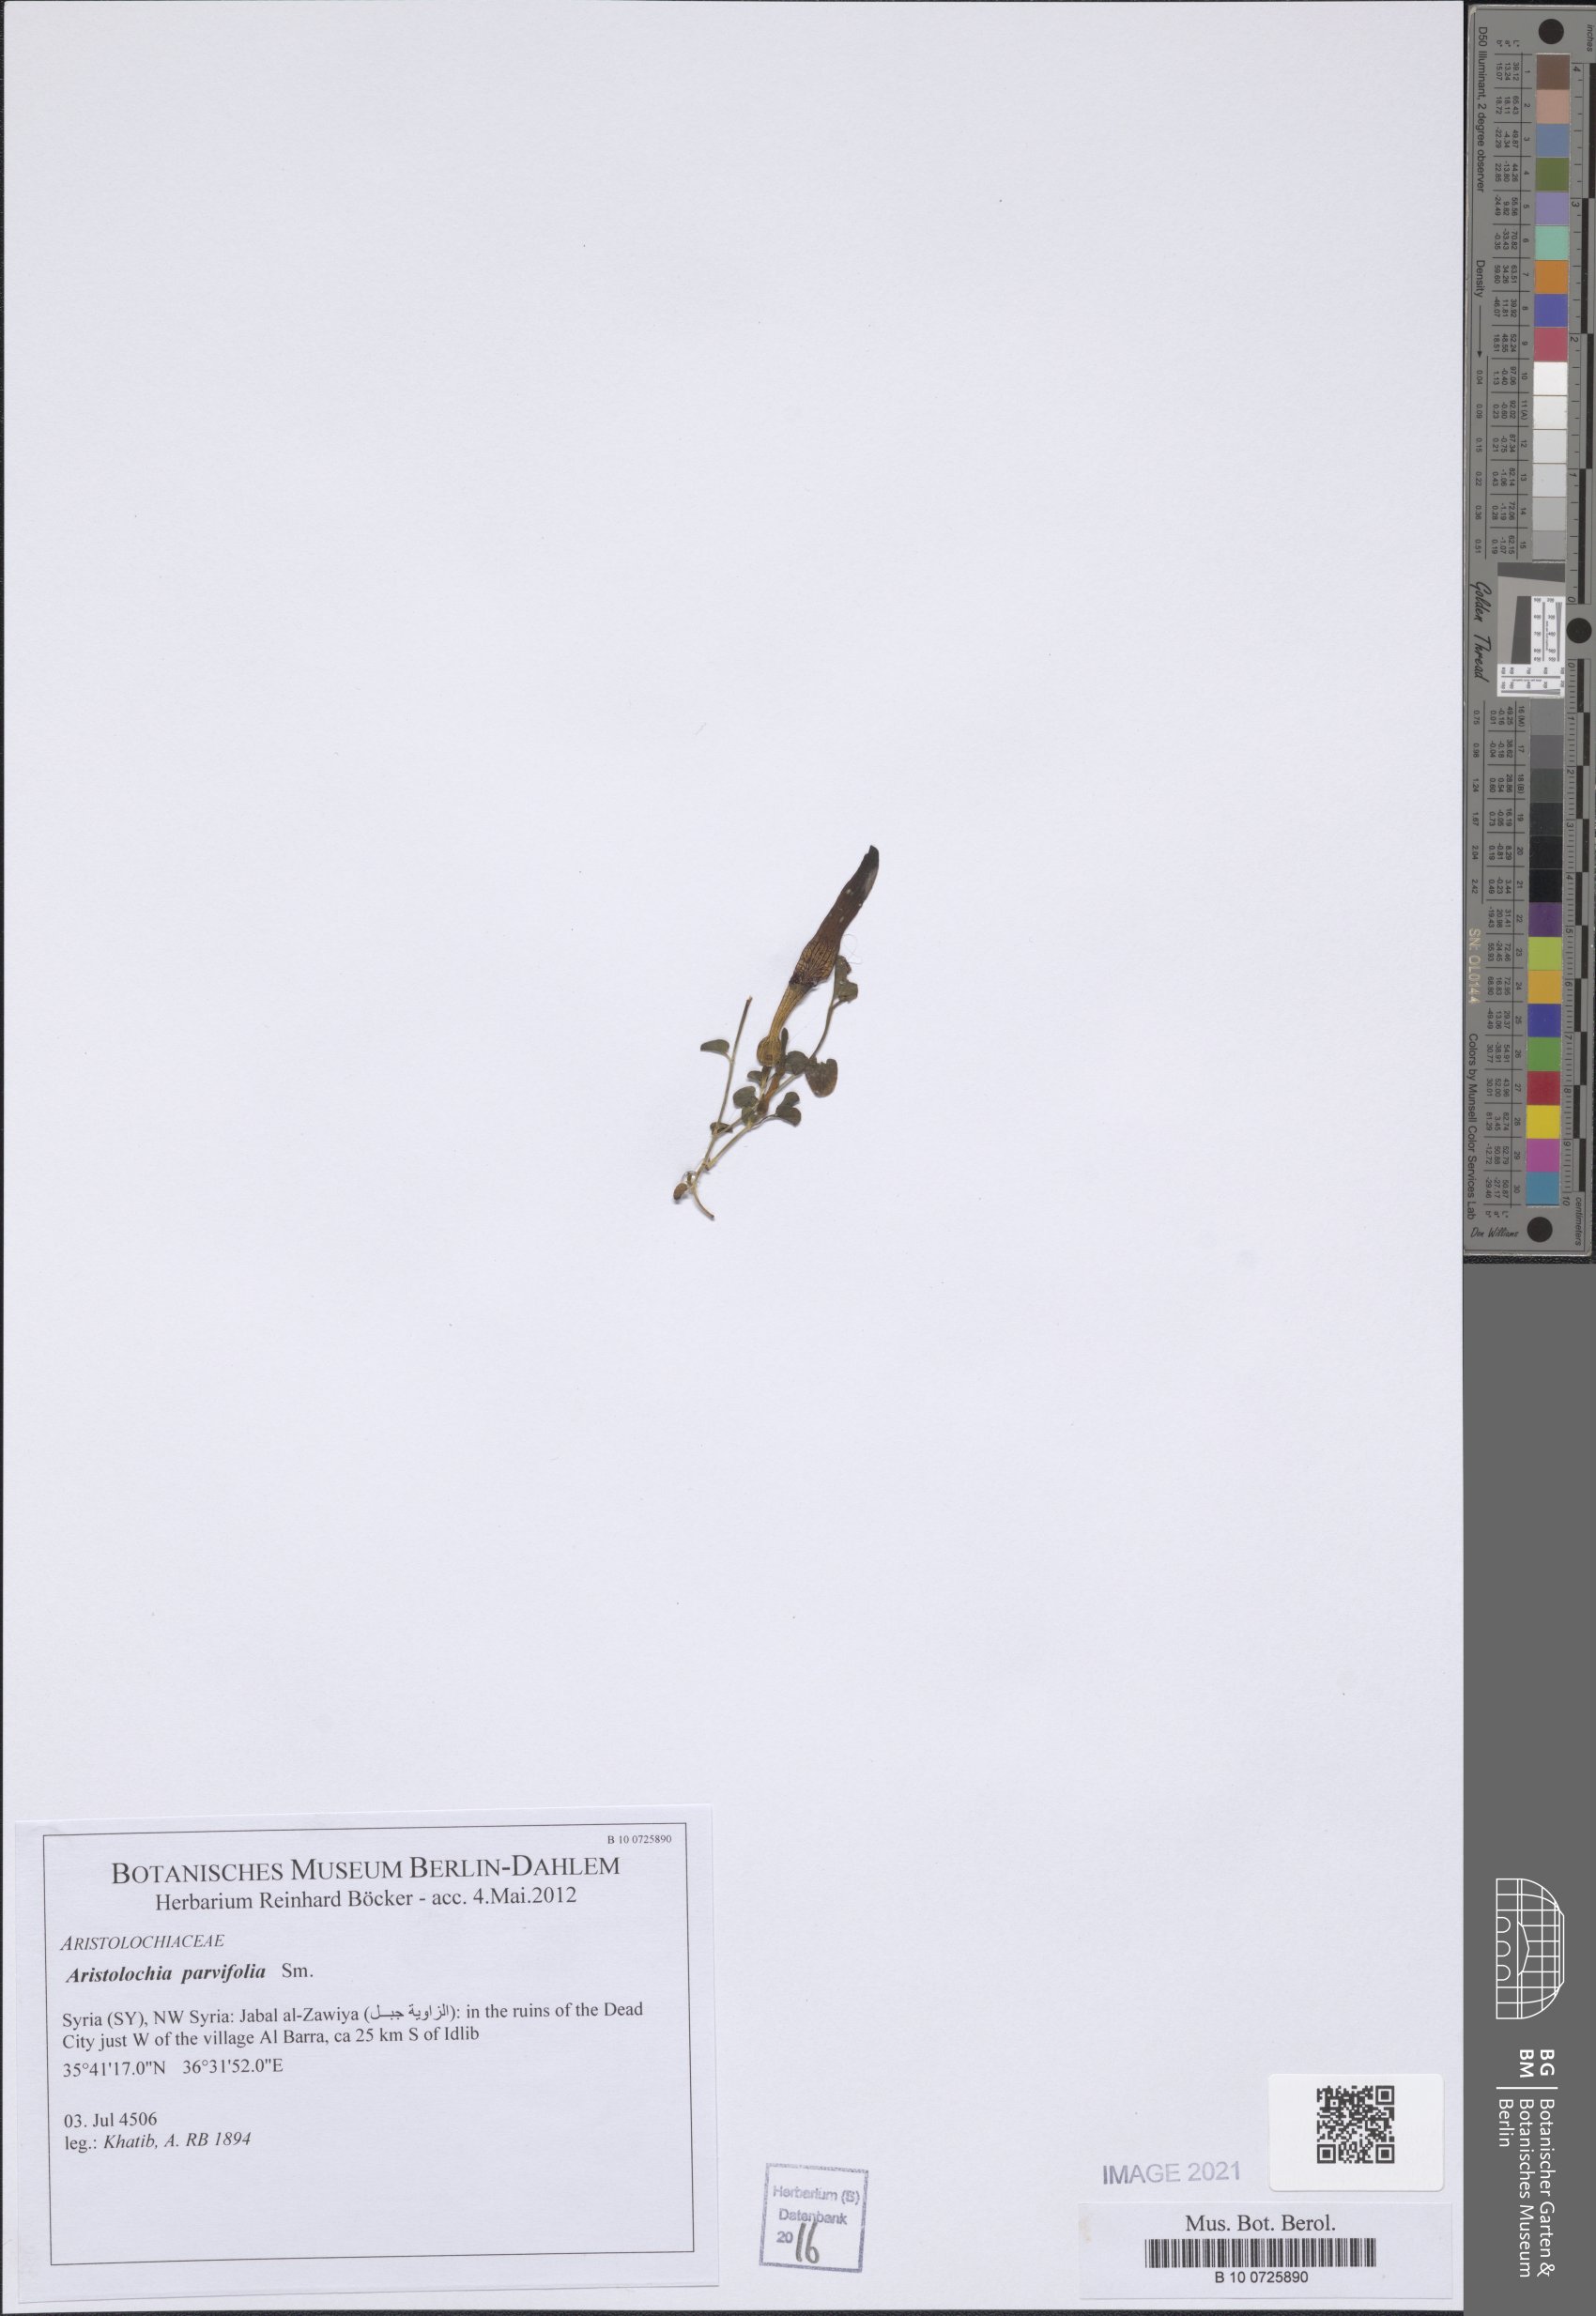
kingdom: Plantae
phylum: Tracheophyta
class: Magnoliopsida
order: Piperales
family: Aristolochiaceae
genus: Aristolochia
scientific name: Aristolochia parvifolia
